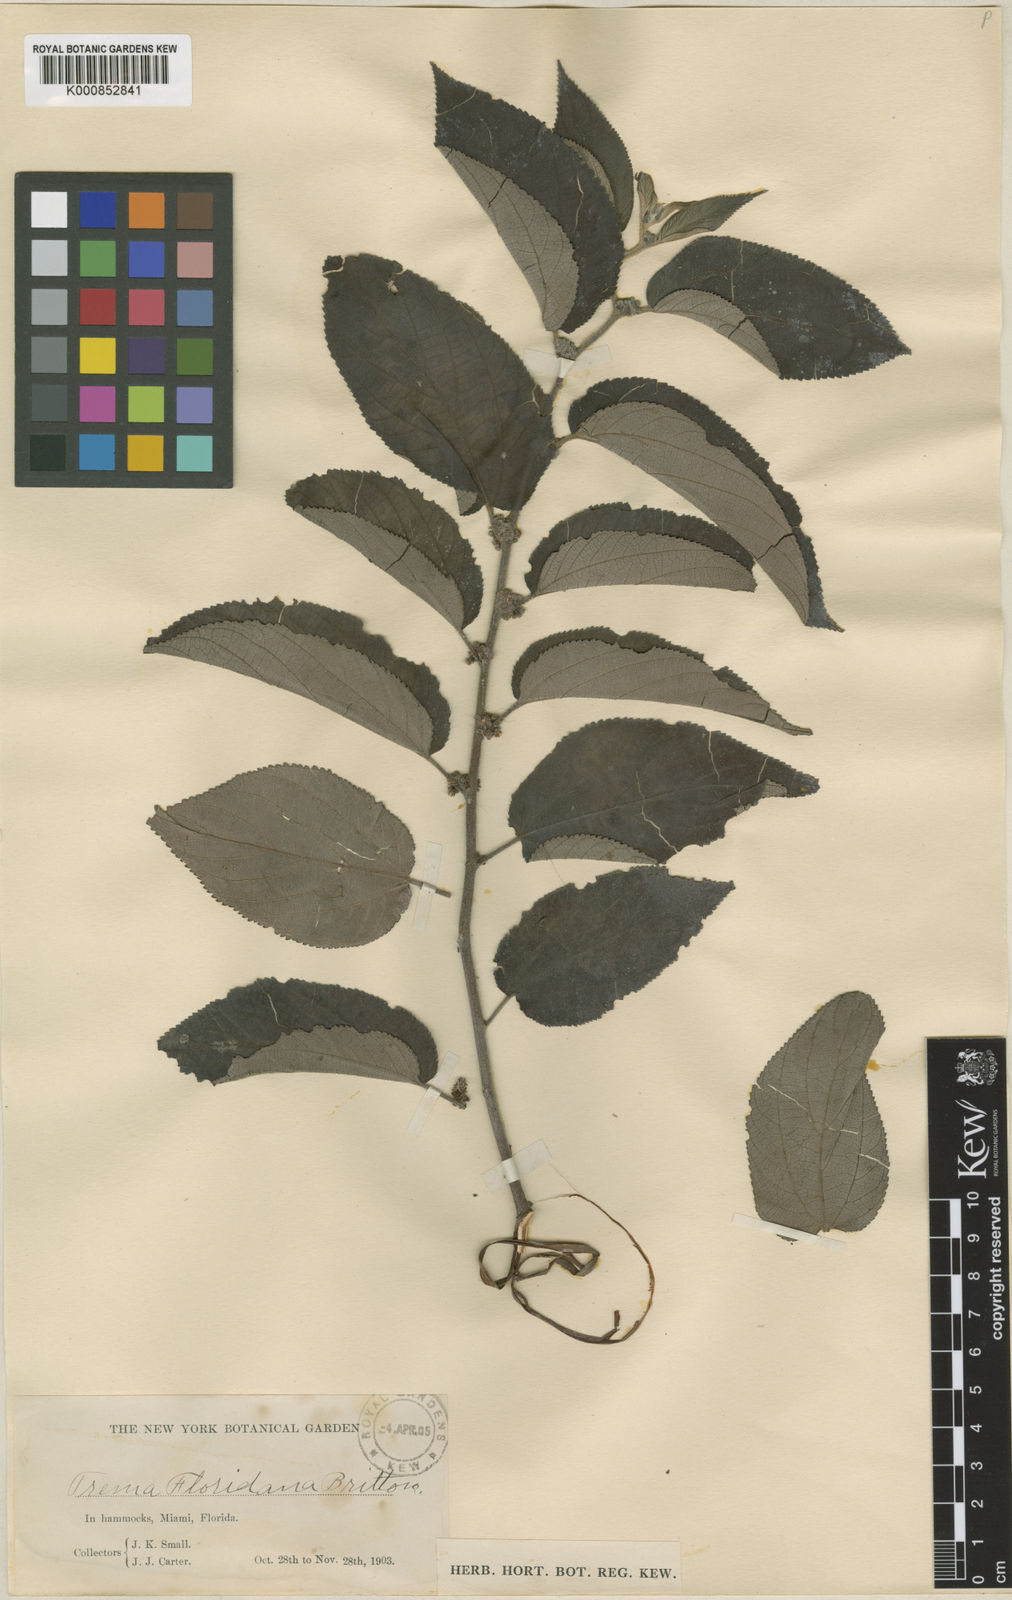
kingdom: Plantae
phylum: Tracheophyta
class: Magnoliopsida
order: Rosales
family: Cannabaceae
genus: Trema
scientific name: Trema
